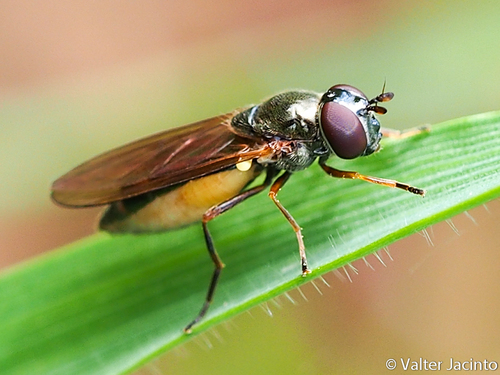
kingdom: Animalia
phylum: Arthropoda
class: Insecta
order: Diptera
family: Syrphidae
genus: Melanostoma
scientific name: Melanostoma
